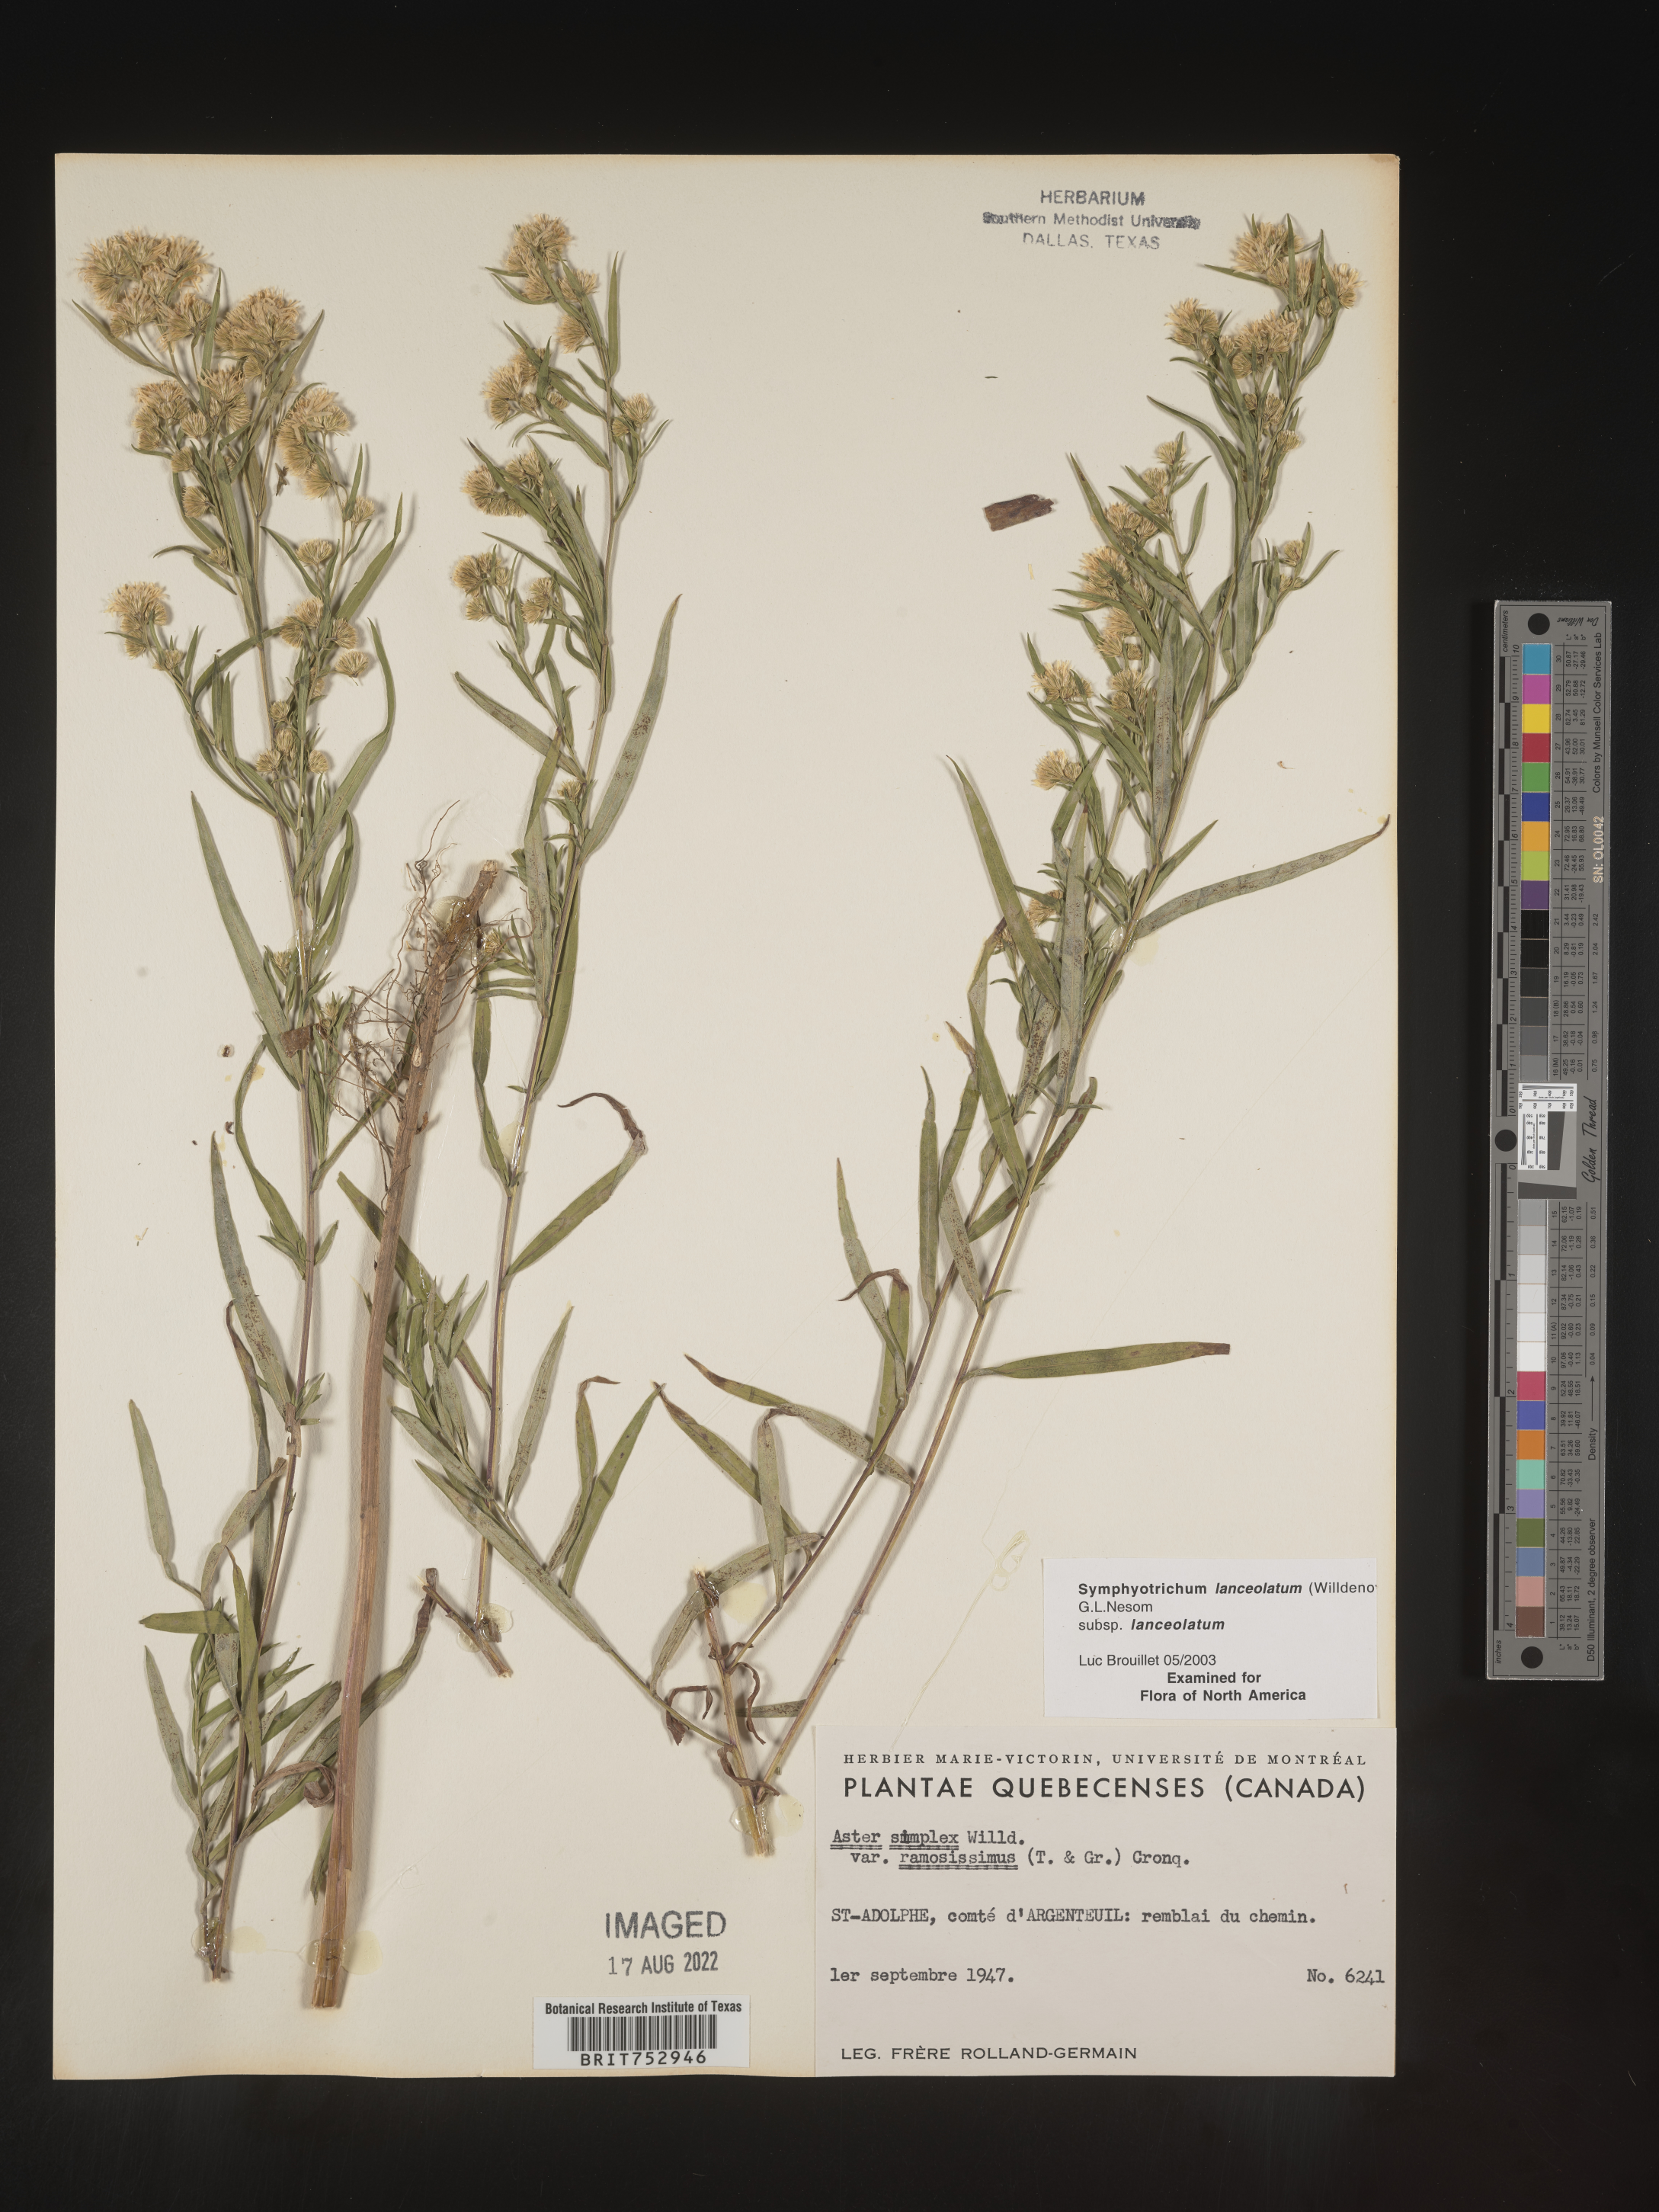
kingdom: Plantae
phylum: Tracheophyta
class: Magnoliopsida
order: Asterales
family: Asteraceae
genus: Symphyotrichum
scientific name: Symphyotrichum lanceolatum
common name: Panicled aster
